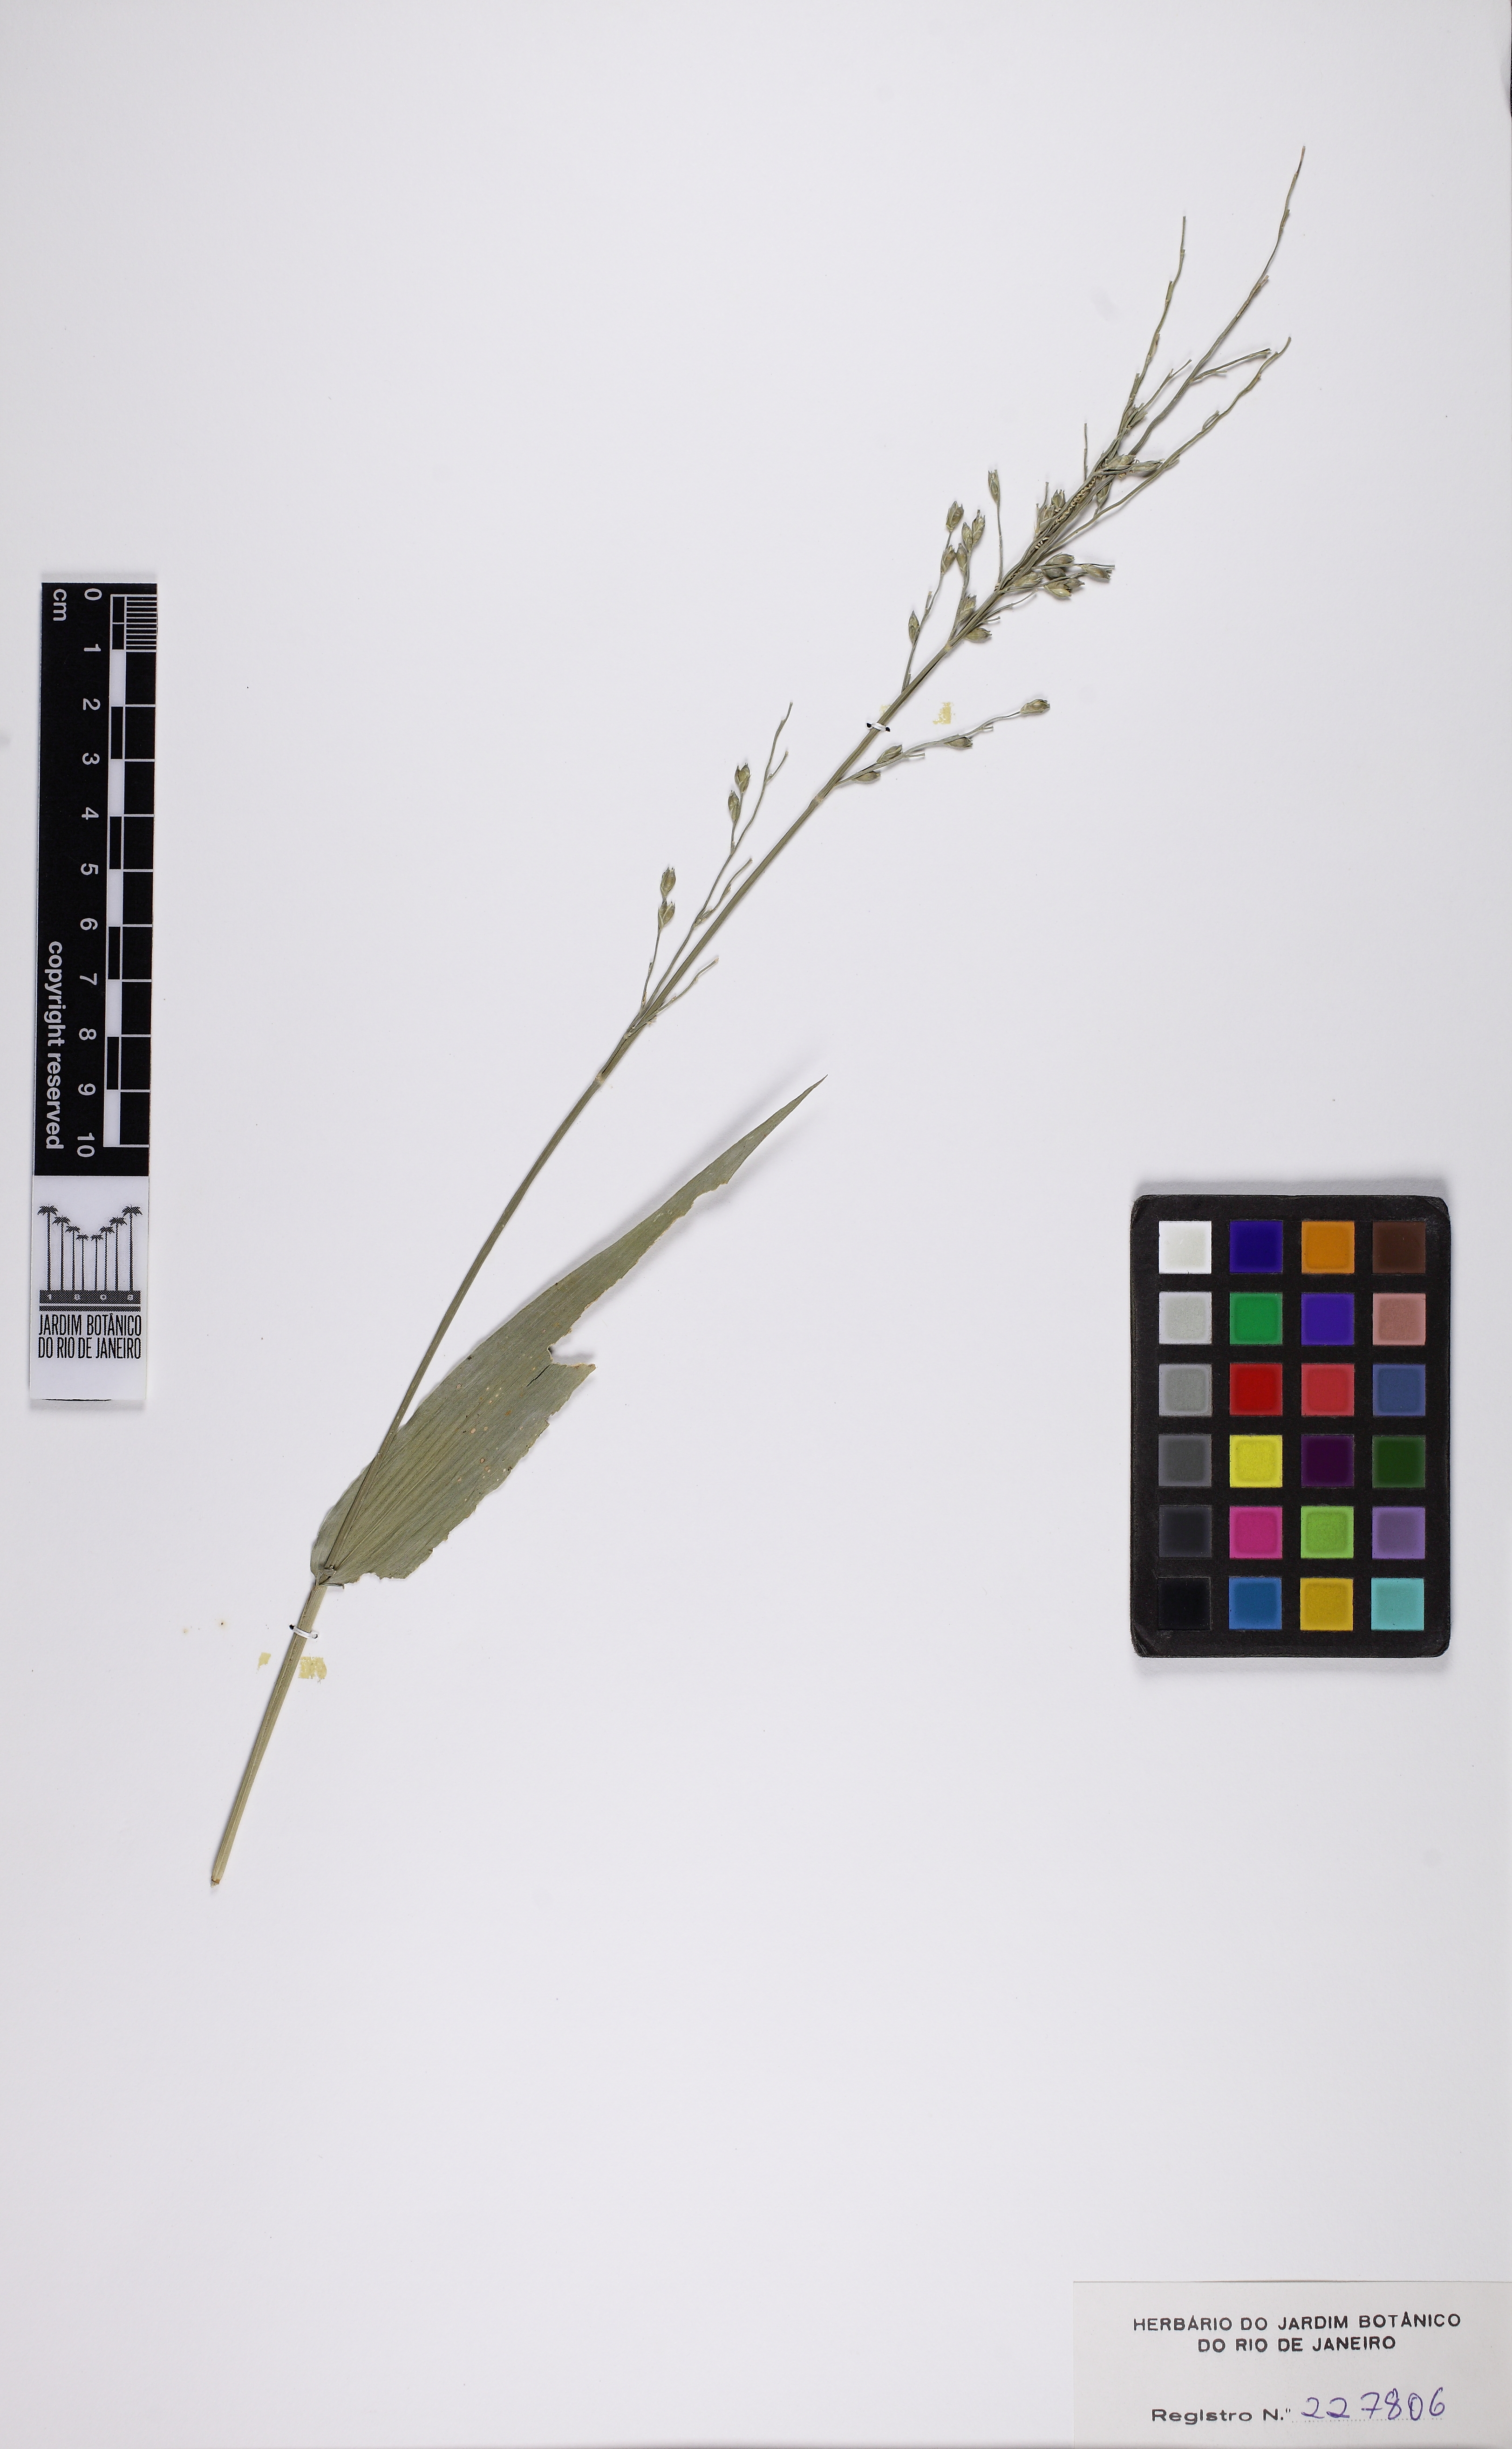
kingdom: Plantae
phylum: Tracheophyta
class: Liliopsida
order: Poales
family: Poaceae
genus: Acroceras
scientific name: Acroceras zizanioides
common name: Oat grass
